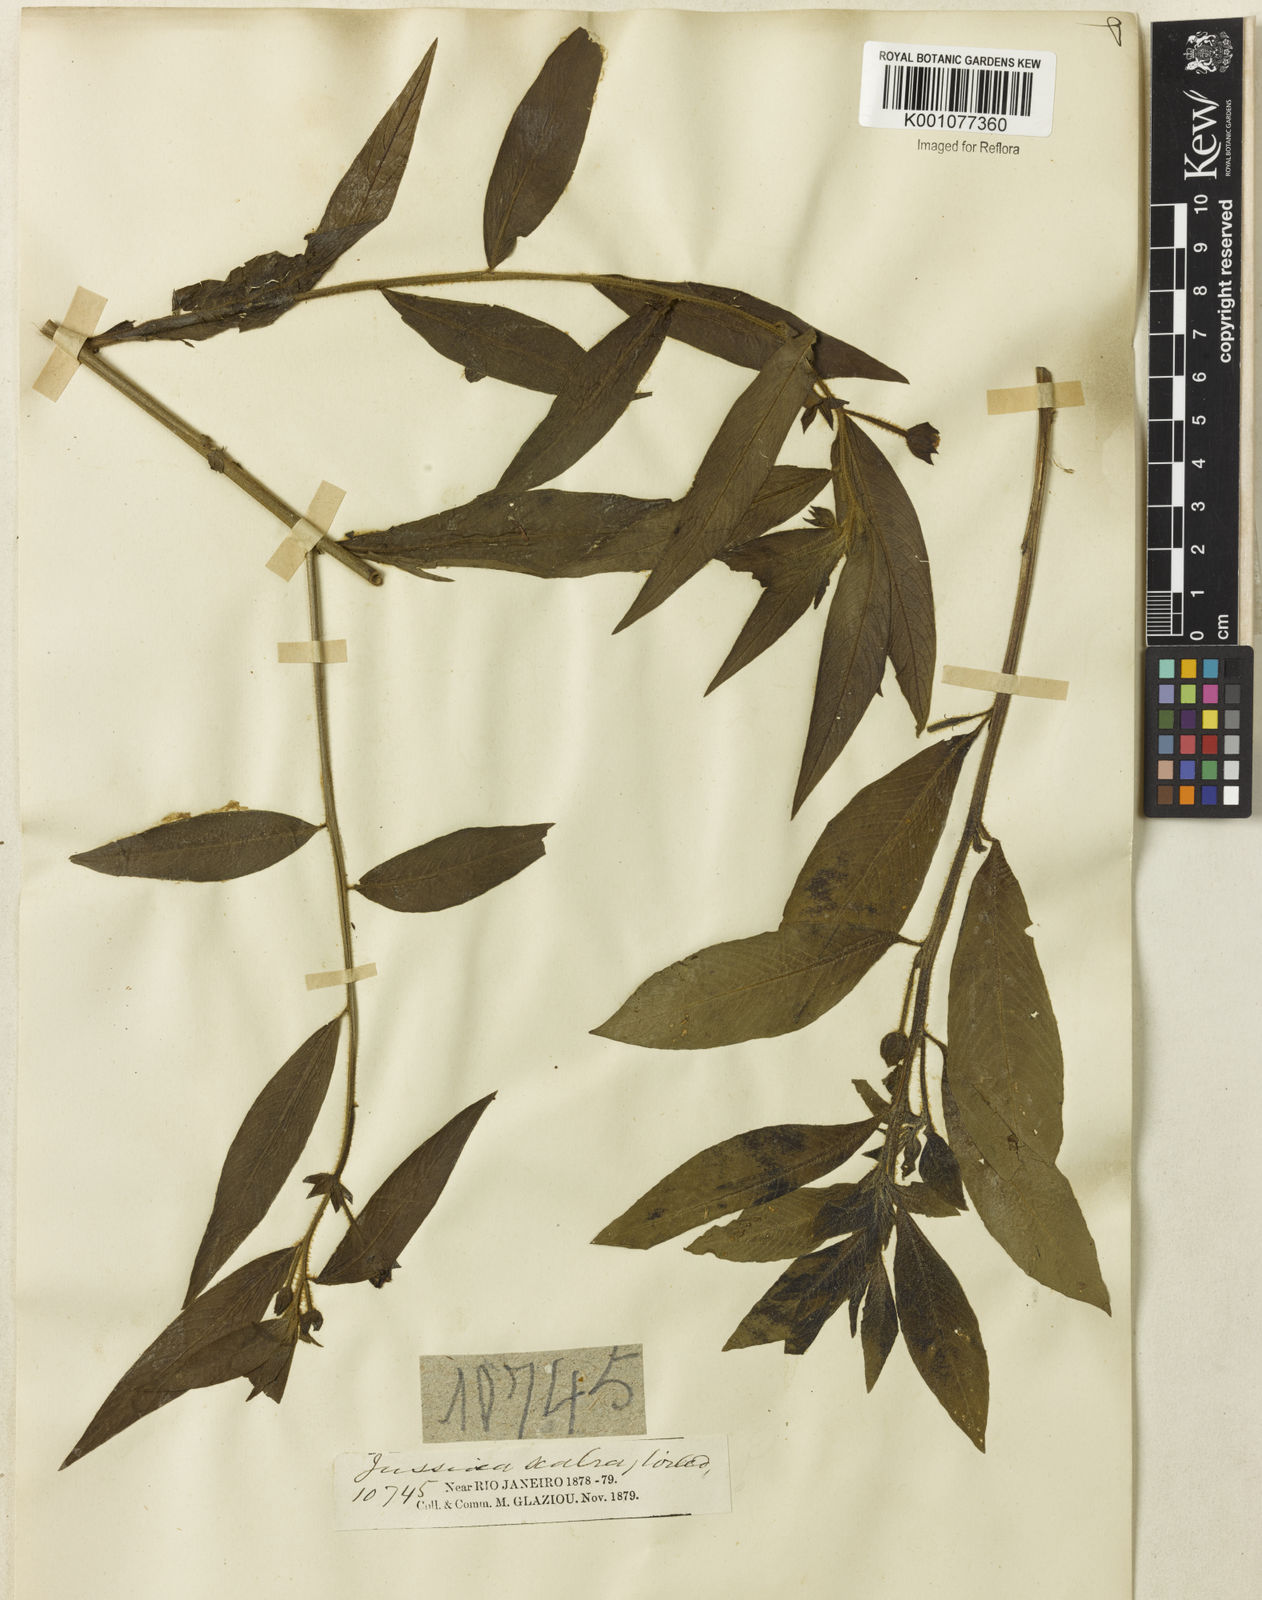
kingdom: Plantae
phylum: Tracheophyta
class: Magnoliopsida
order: Myrtales
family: Onagraceae
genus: Ludwigia
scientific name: Ludwigia octovalvis
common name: Water-primrose
